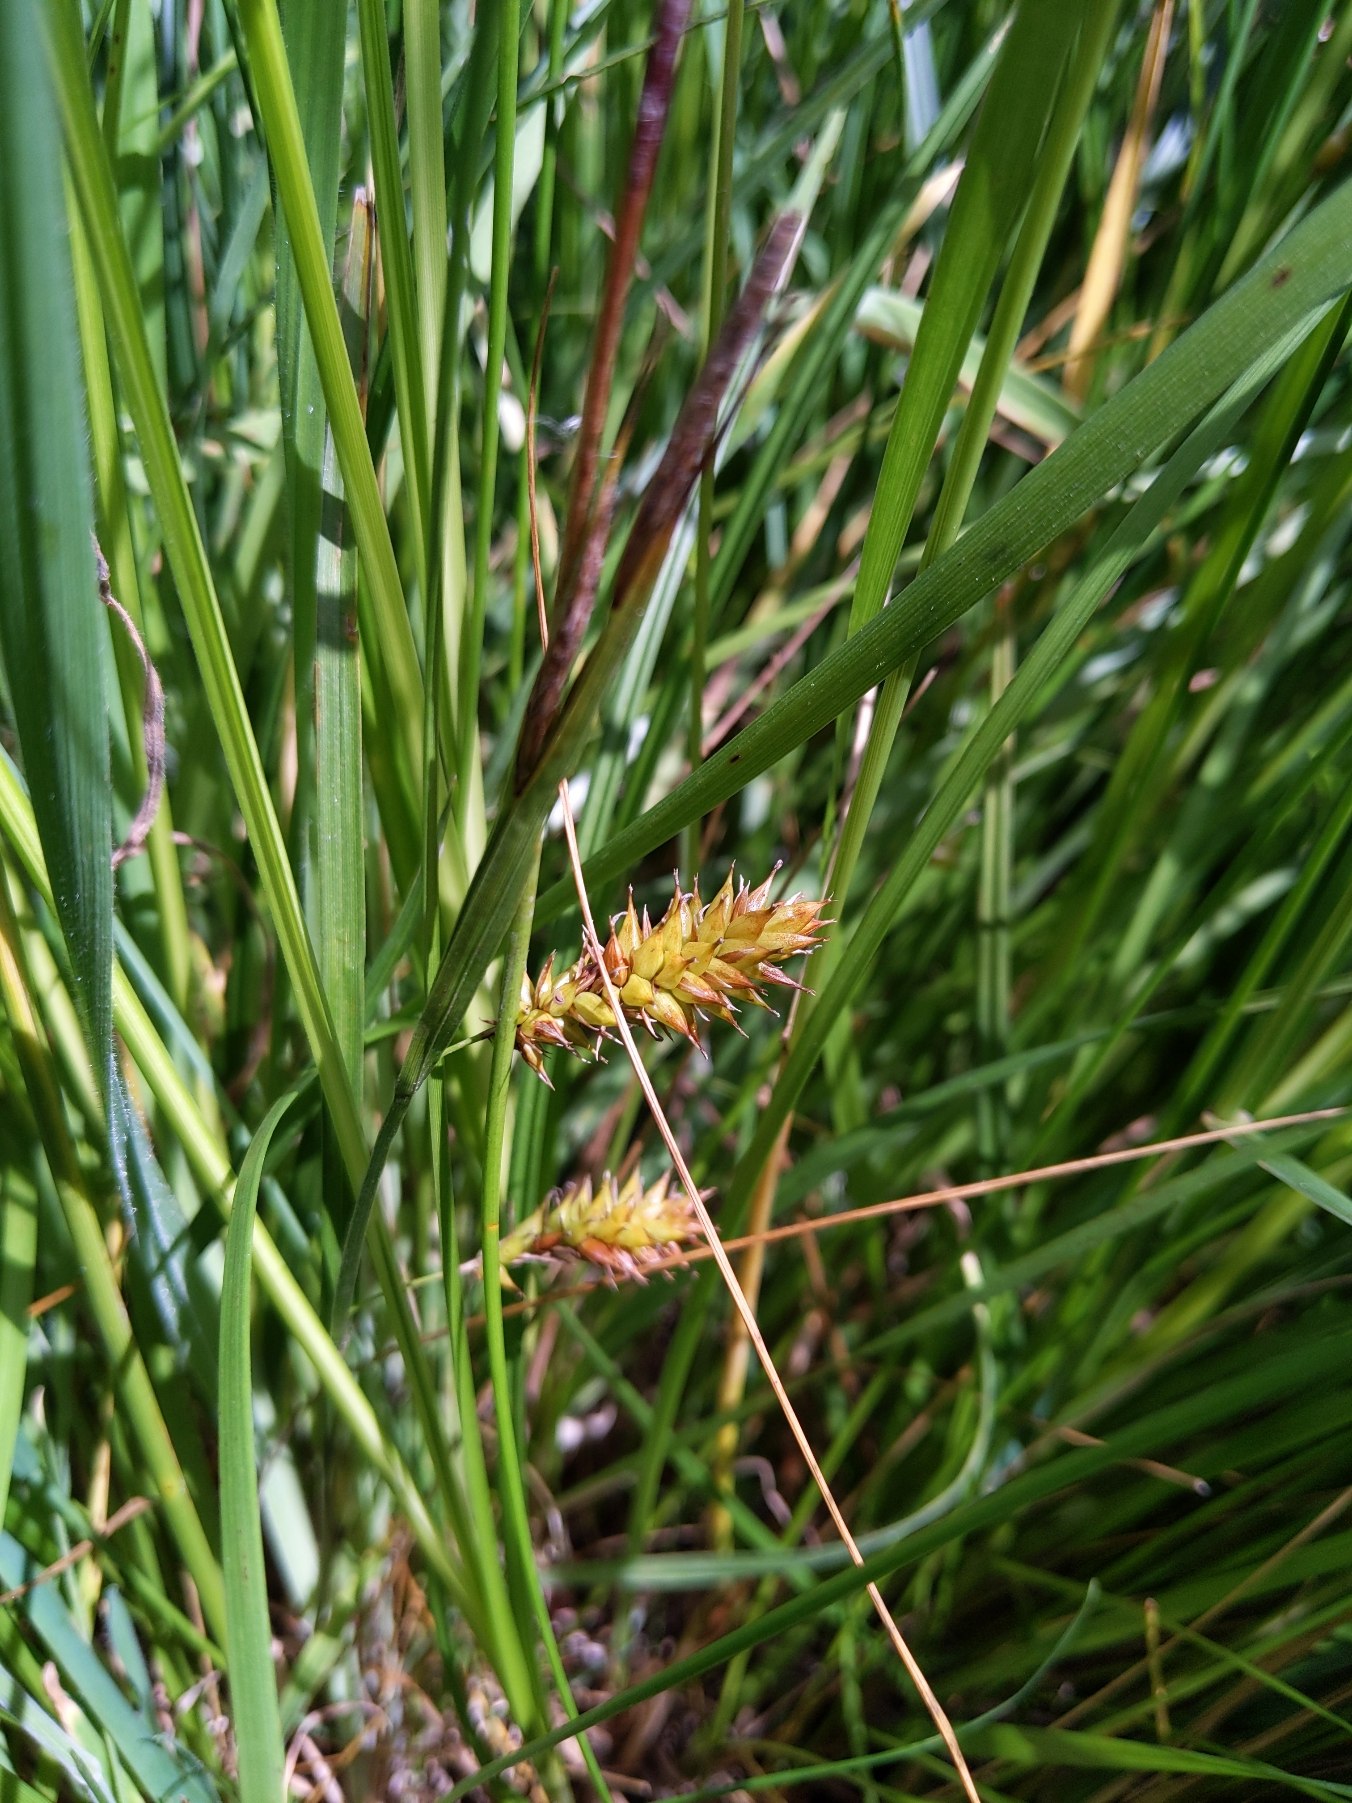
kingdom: Plantae
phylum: Tracheophyta
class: Liliopsida
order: Poales
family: Cyperaceae
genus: Carex
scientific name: Carex vesicaria
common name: Blære-star
